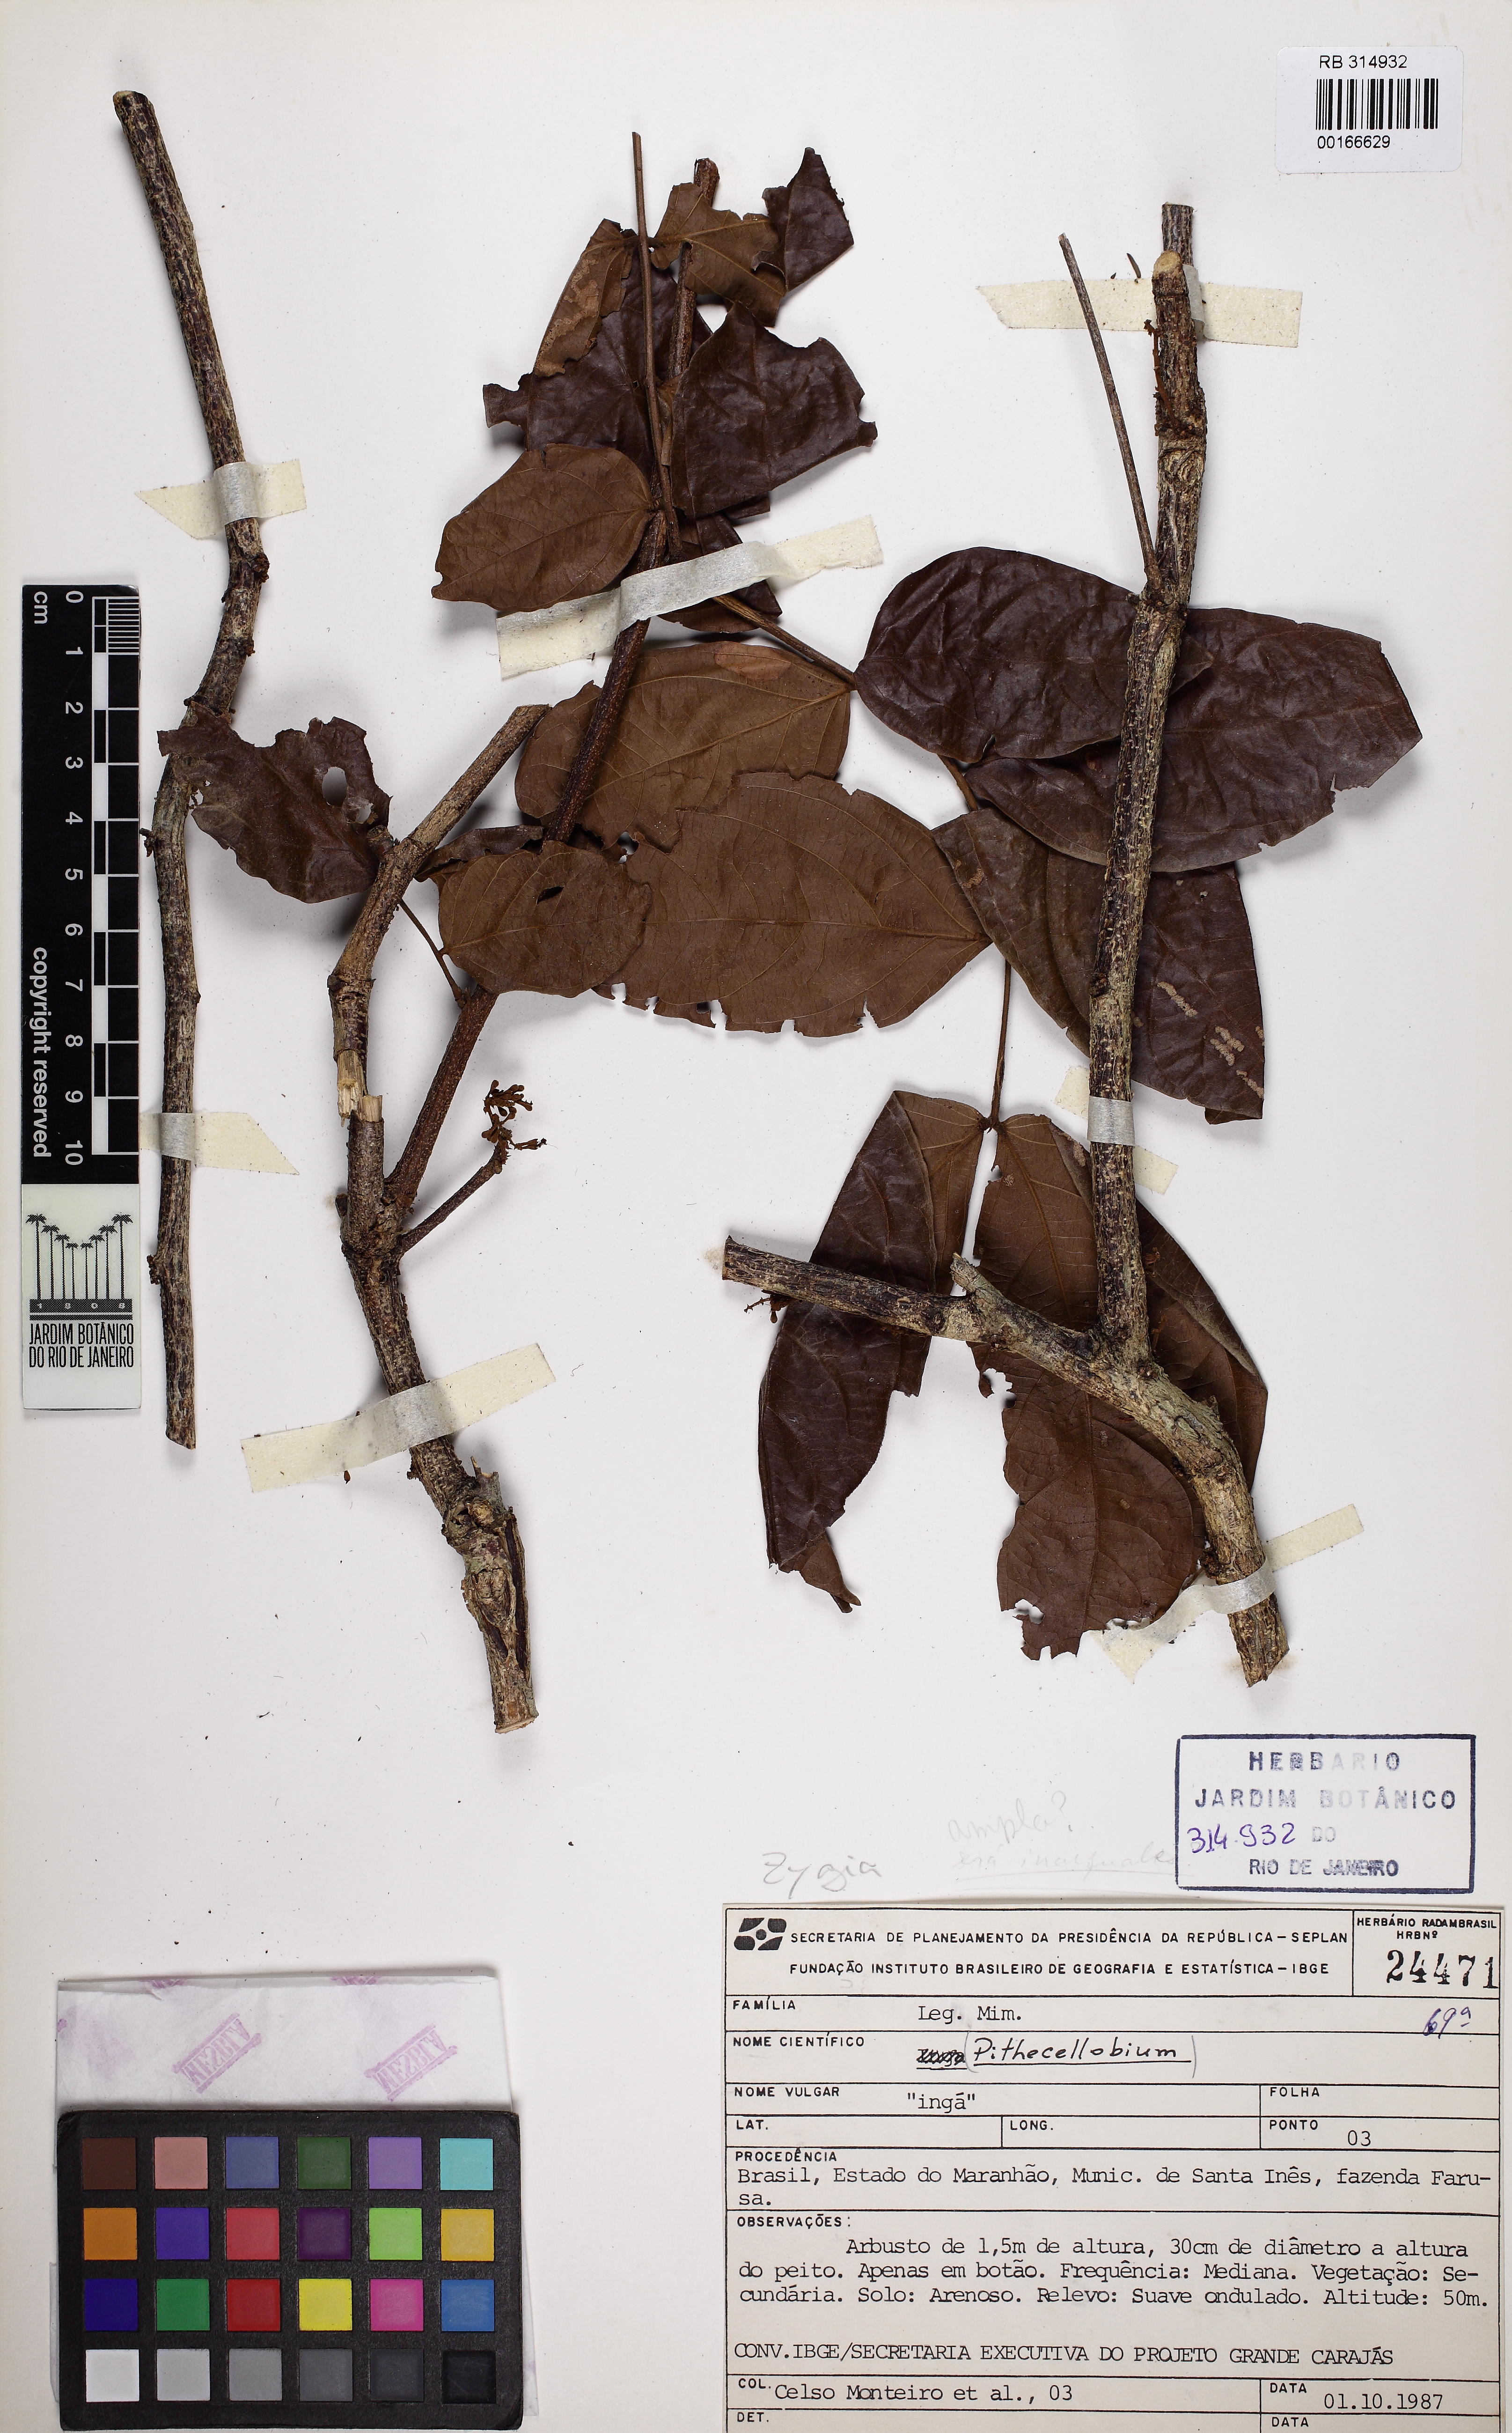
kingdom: Plantae
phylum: Tracheophyta
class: Magnoliopsida
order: Fabales
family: Fabaceae
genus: Zygia
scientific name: Zygia ampla
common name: Jarendeua de sapo
